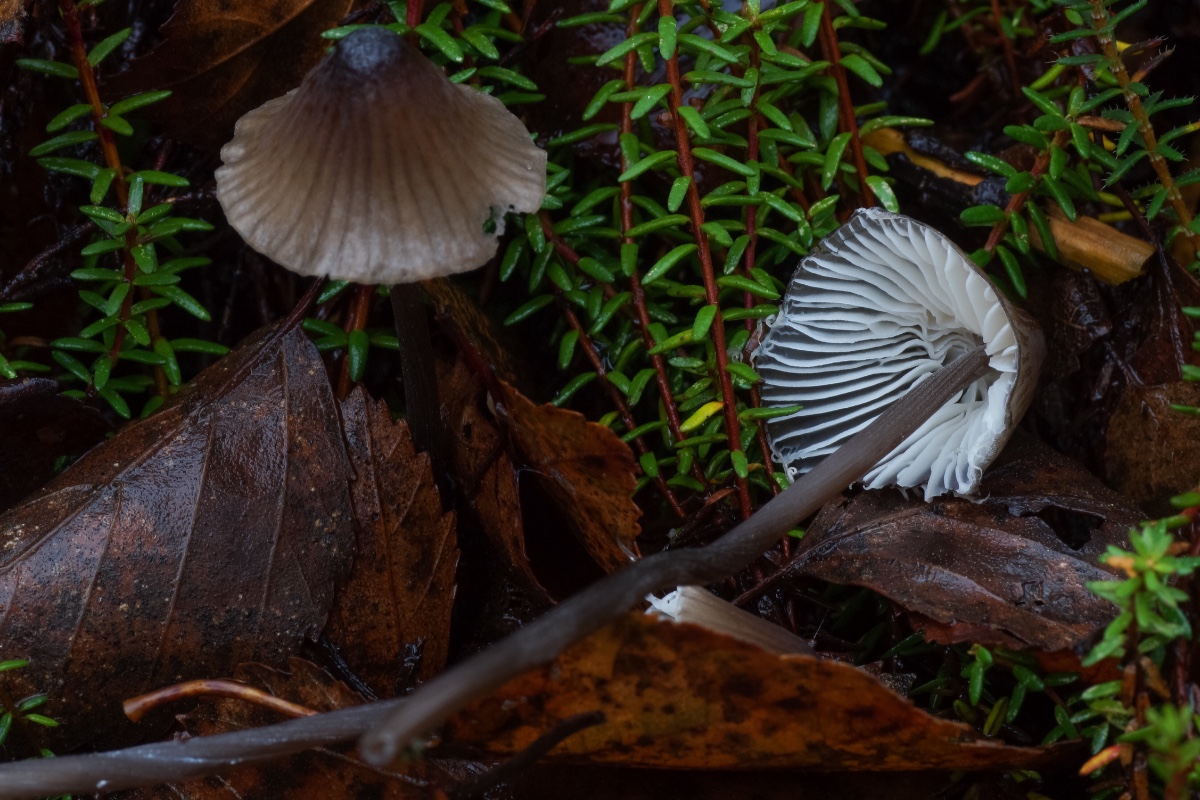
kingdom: Fungi
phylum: Basidiomycota
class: Agaricomycetes
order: Agaricales
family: Mycenaceae
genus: Mycena
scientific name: Mycena galopus
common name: hvidmælket huesvamp
